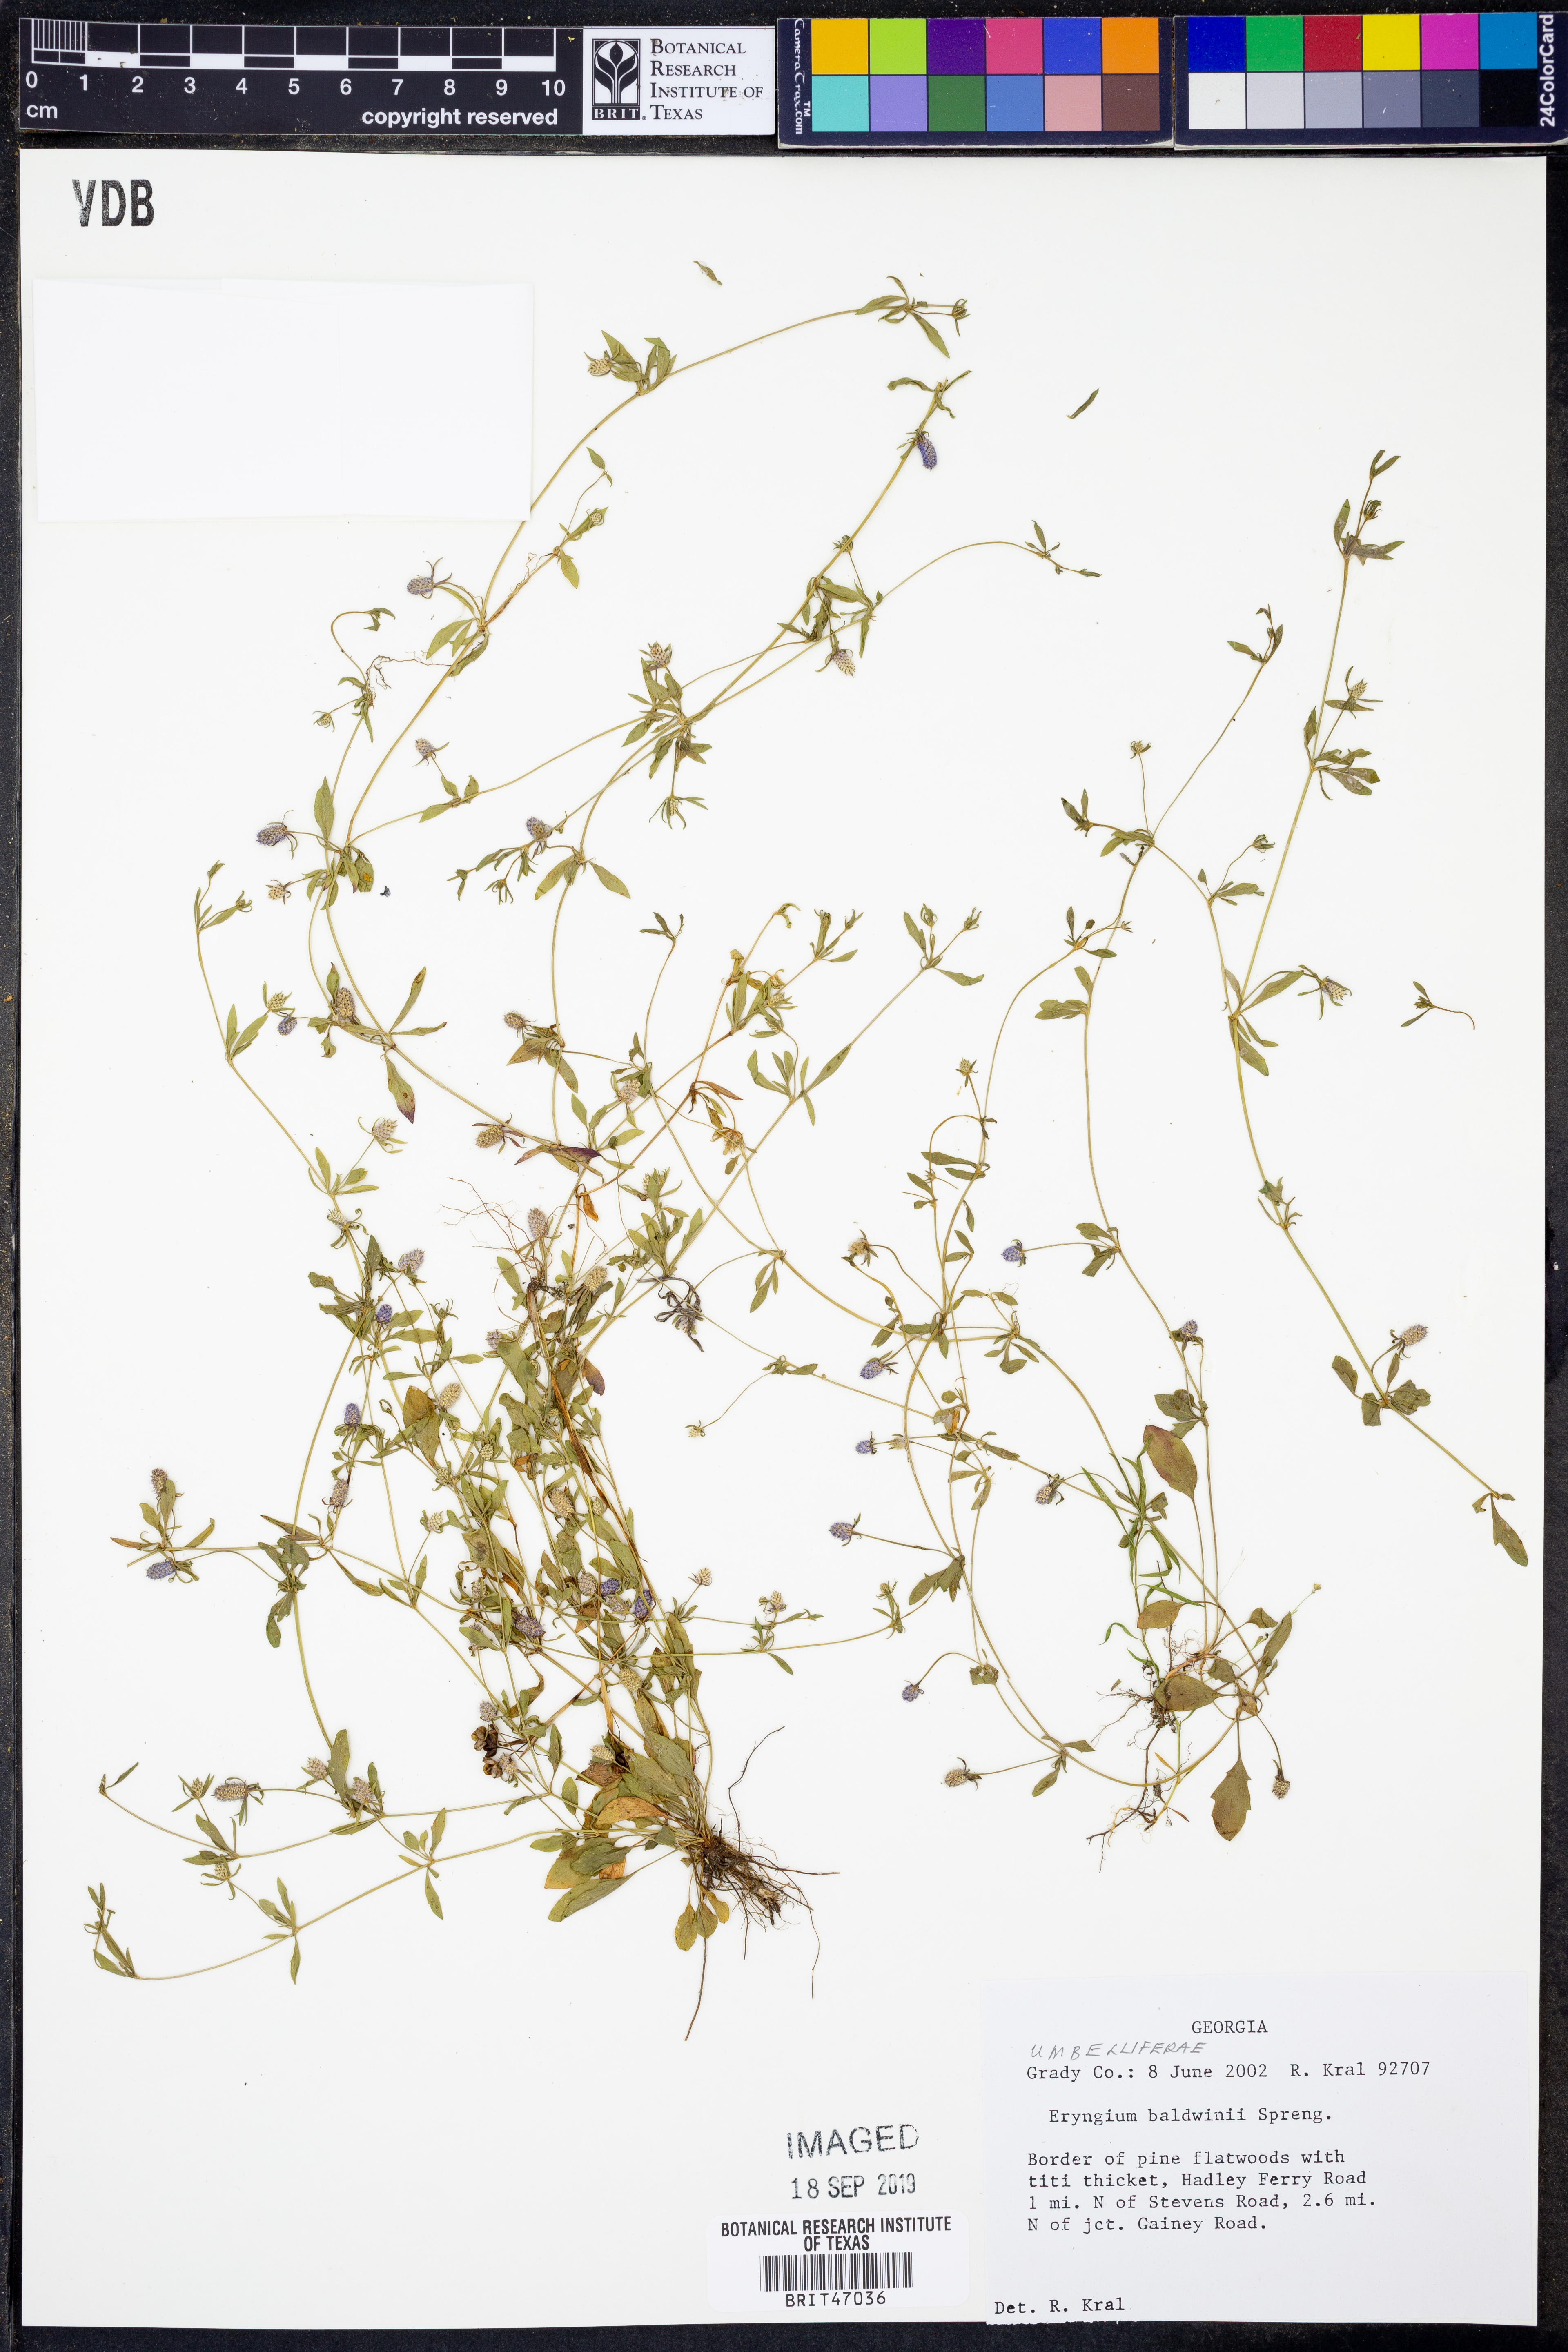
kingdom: Plantae
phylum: Tracheophyta
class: Magnoliopsida
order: Apiales
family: Apiaceae
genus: Eryngium
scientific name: Eryngium baldwinii
